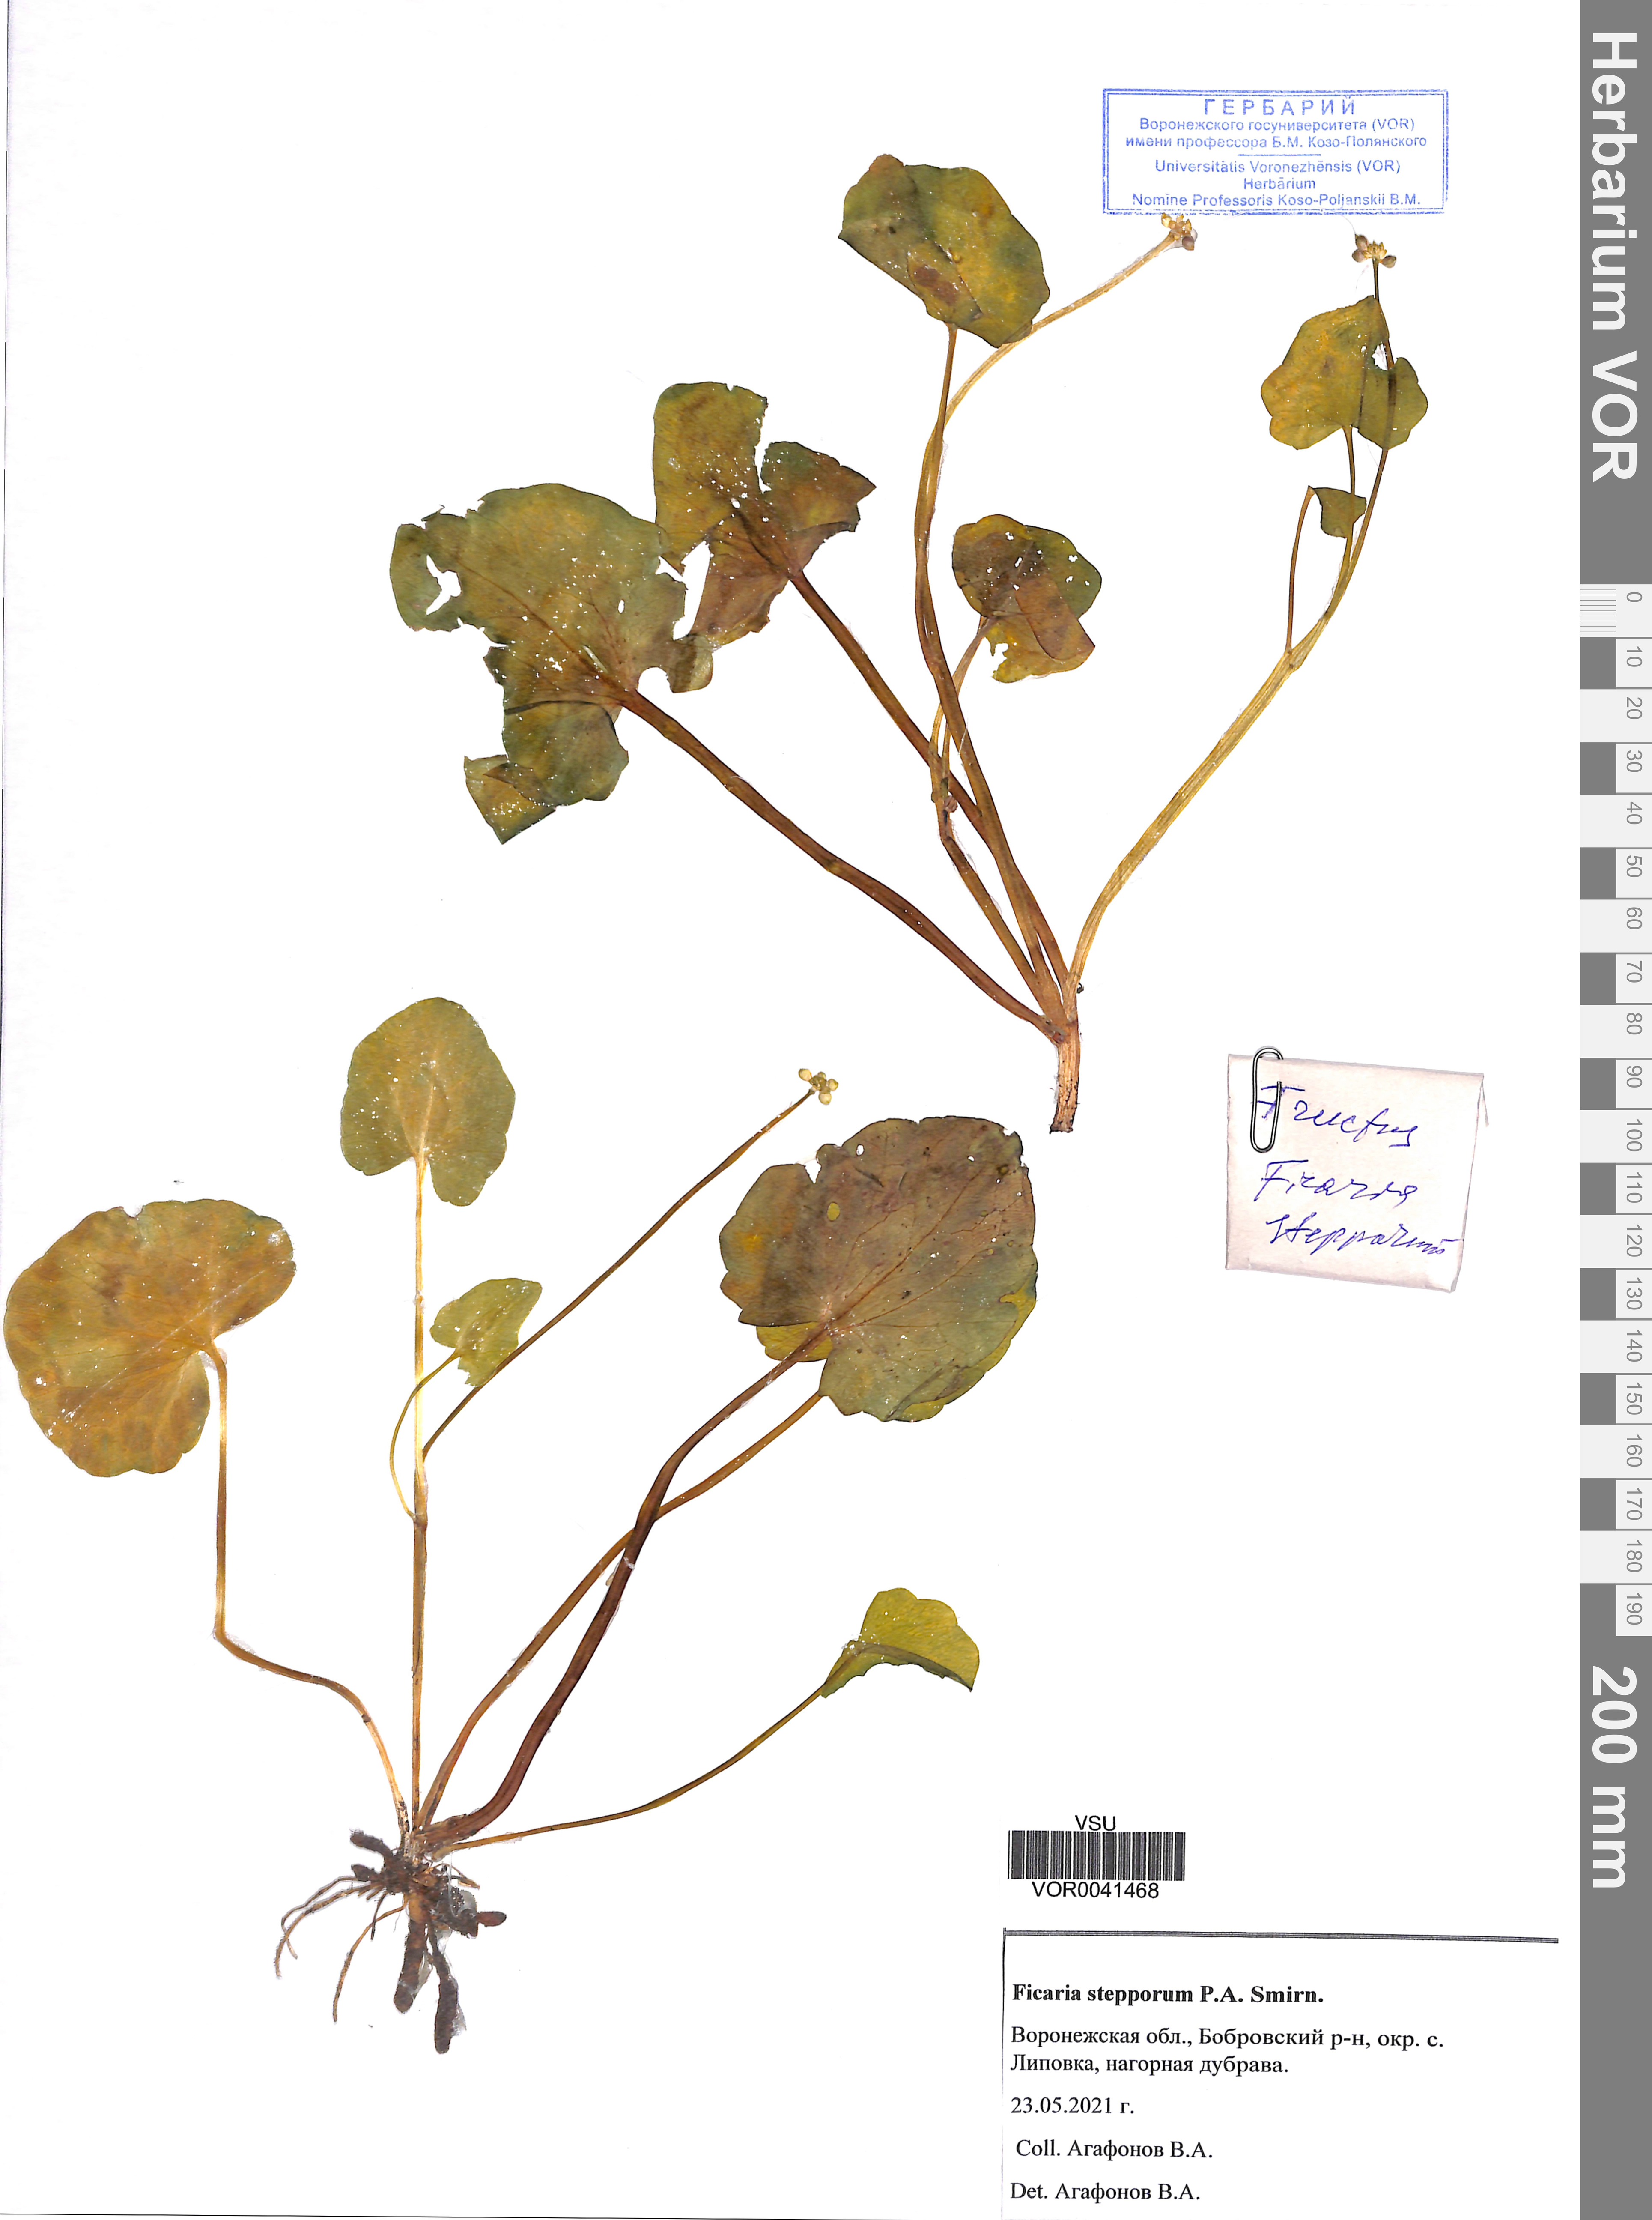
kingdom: Plantae
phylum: Tracheophyta
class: Magnoliopsida
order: Ranunculales
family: Ranunculaceae
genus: Ficaria
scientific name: Ficaria calthifolia
